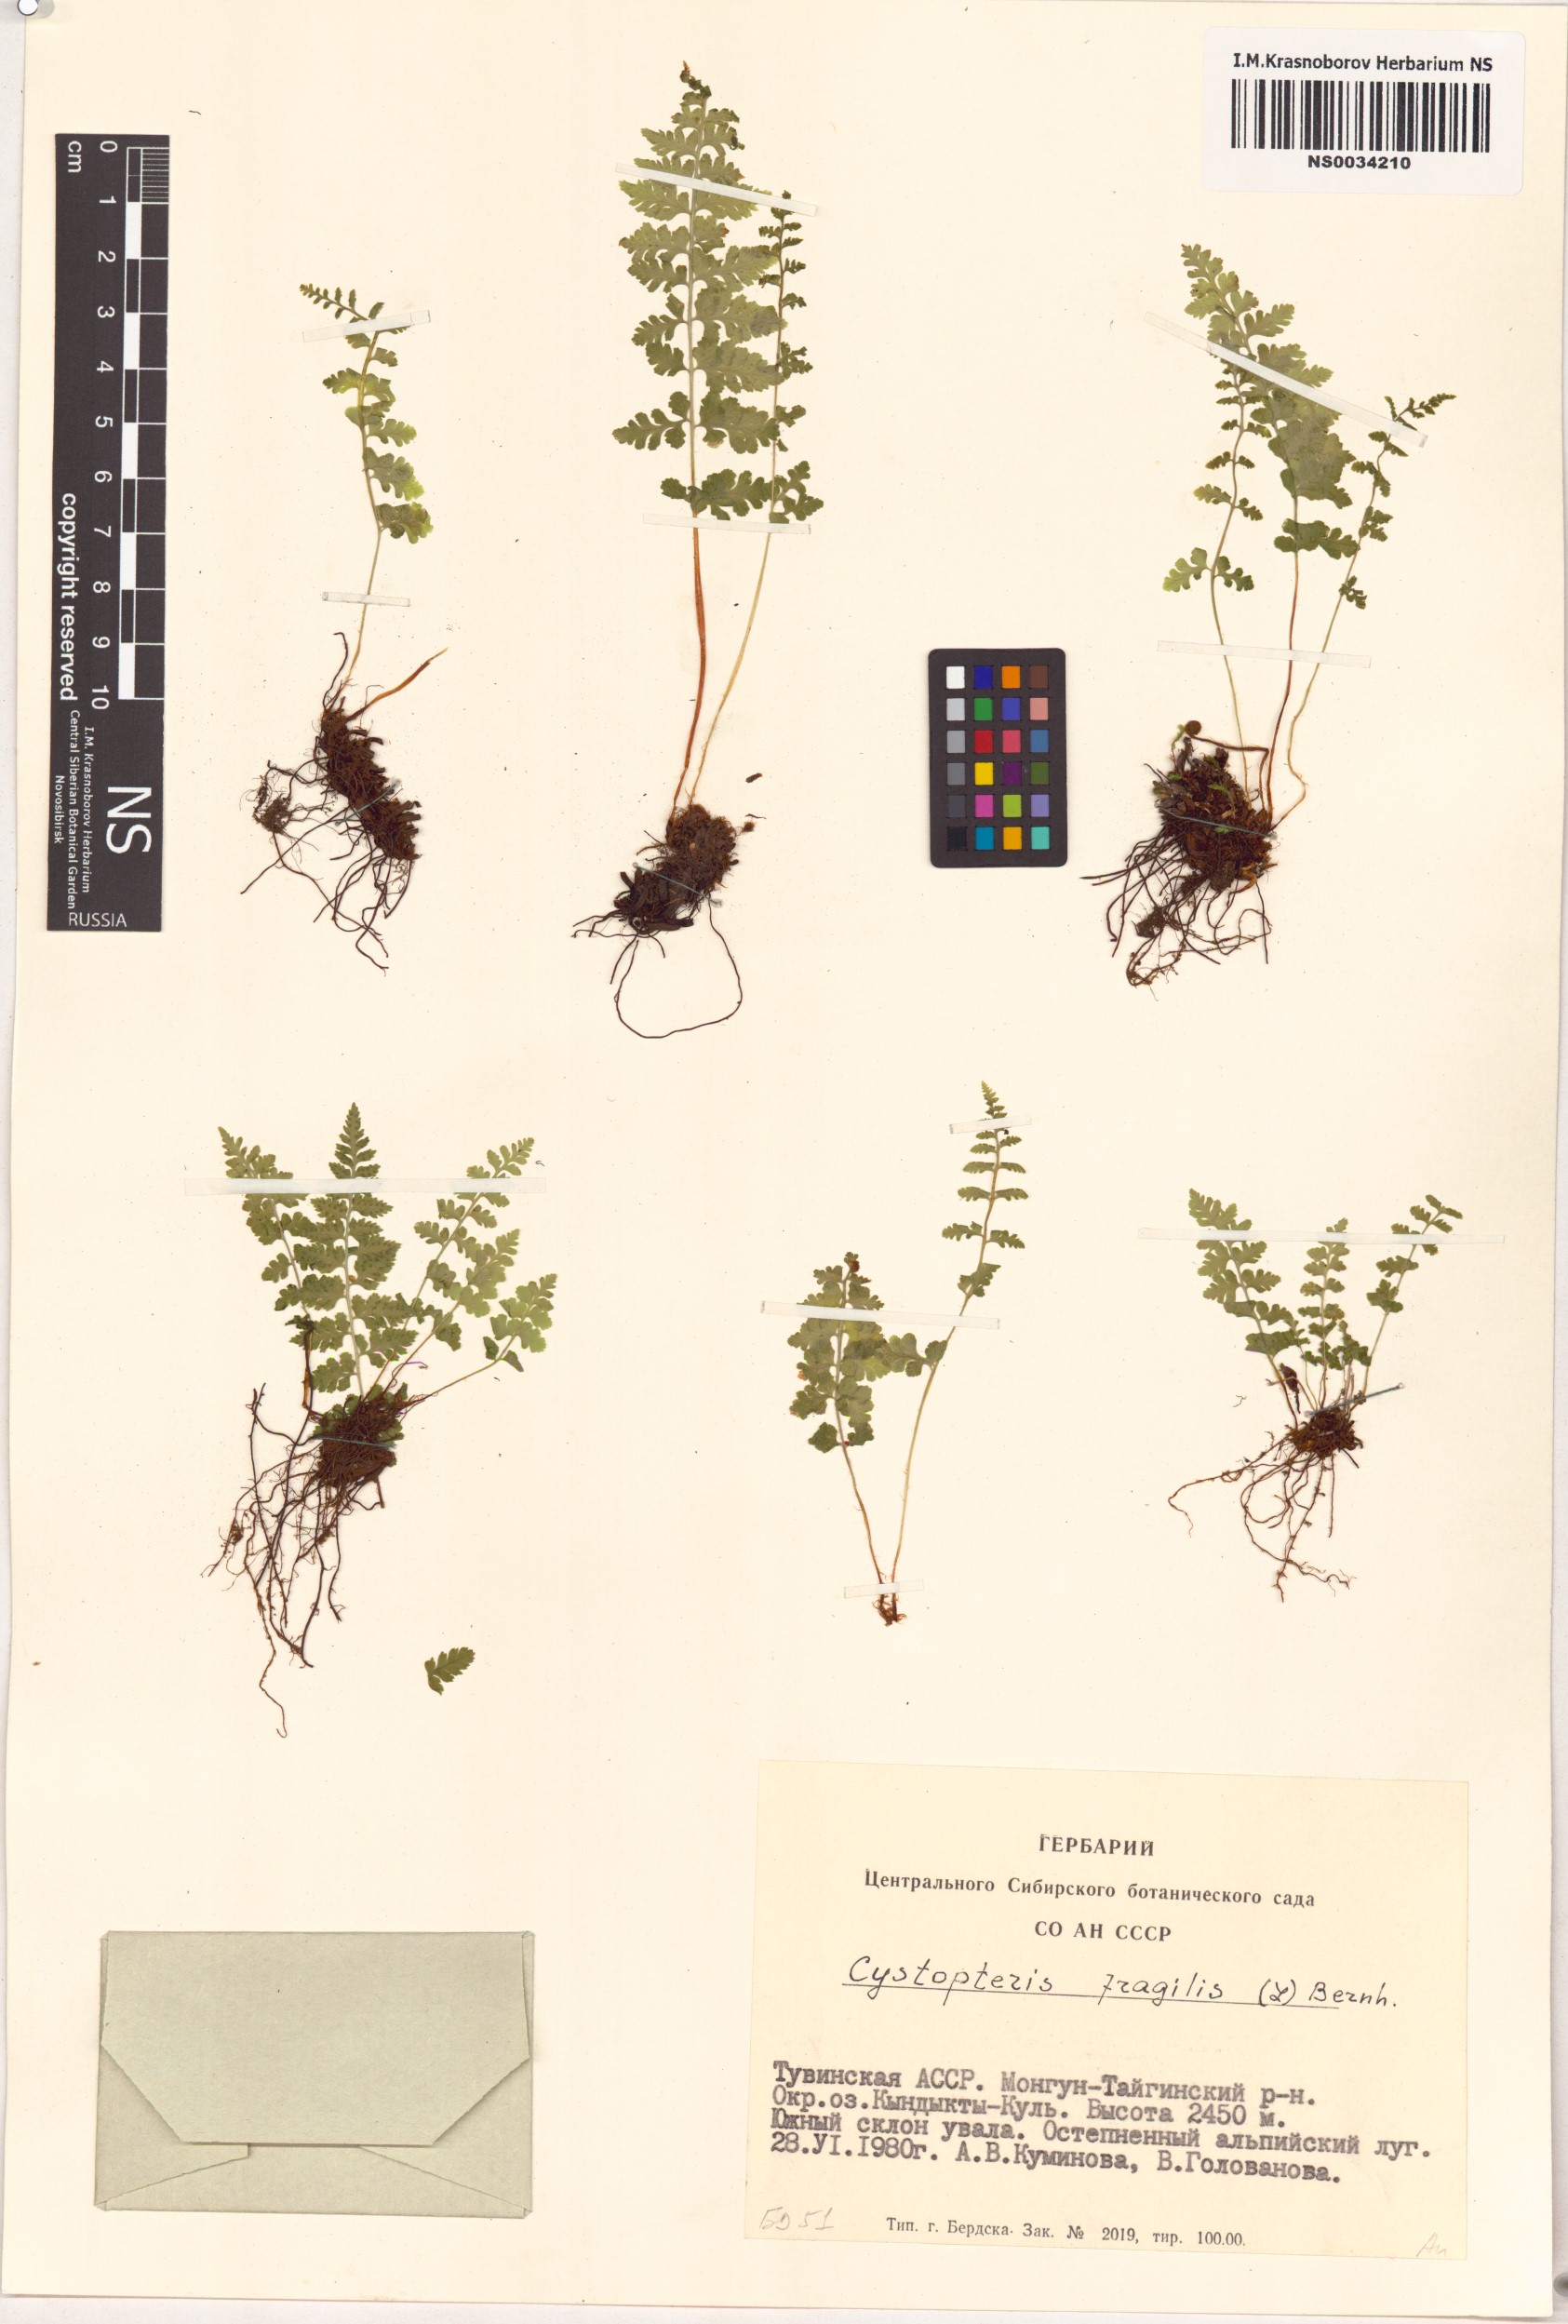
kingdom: Plantae
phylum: Tracheophyta
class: Polypodiopsida
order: Polypodiales
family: Cystopteridaceae
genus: Cystopteris
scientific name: Cystopteris fragilis
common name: Brittle bladder fern
